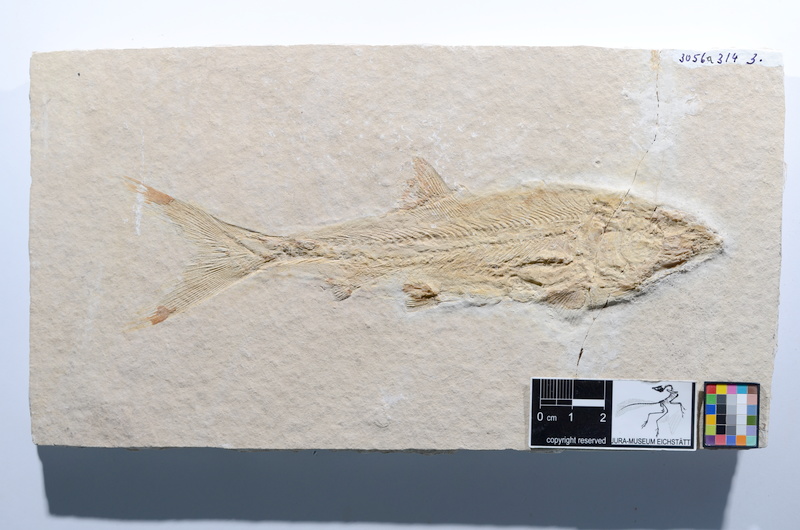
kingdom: Animalia
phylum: Chordata
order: Amiiformes
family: Caturidae
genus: Caturus
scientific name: Caturus
